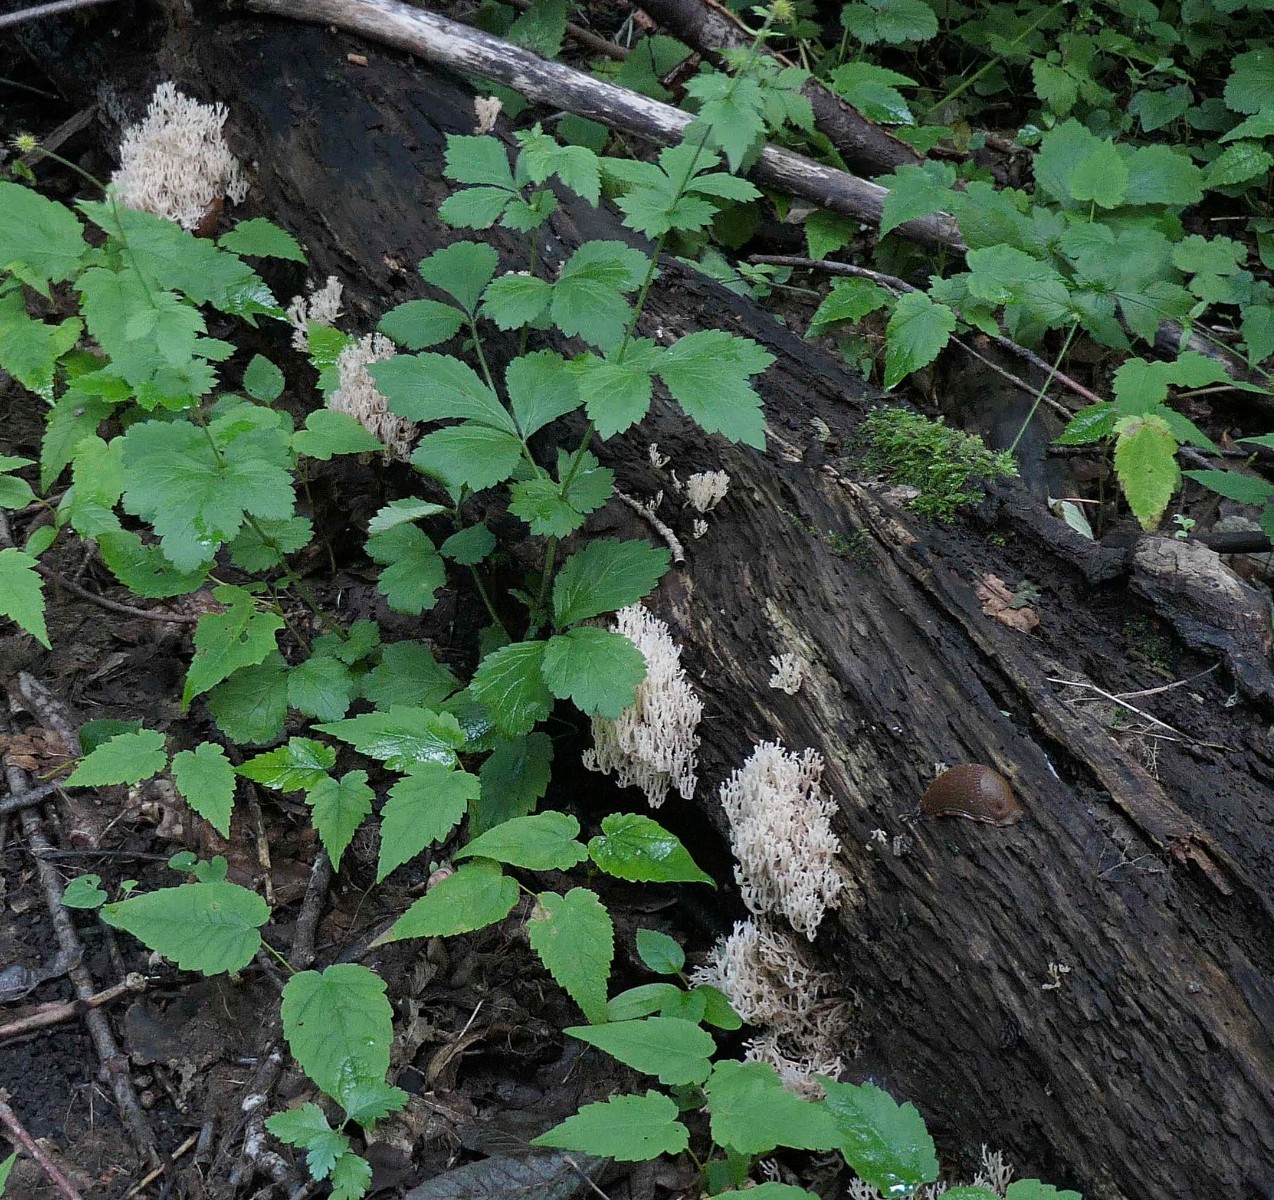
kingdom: Fungi
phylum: Basidiomycota
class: Agaricomycetes
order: Russulales
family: Auriscalpiaceae
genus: Artomyces
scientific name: Artomyces pyxidatus
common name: kandelabersvamp
